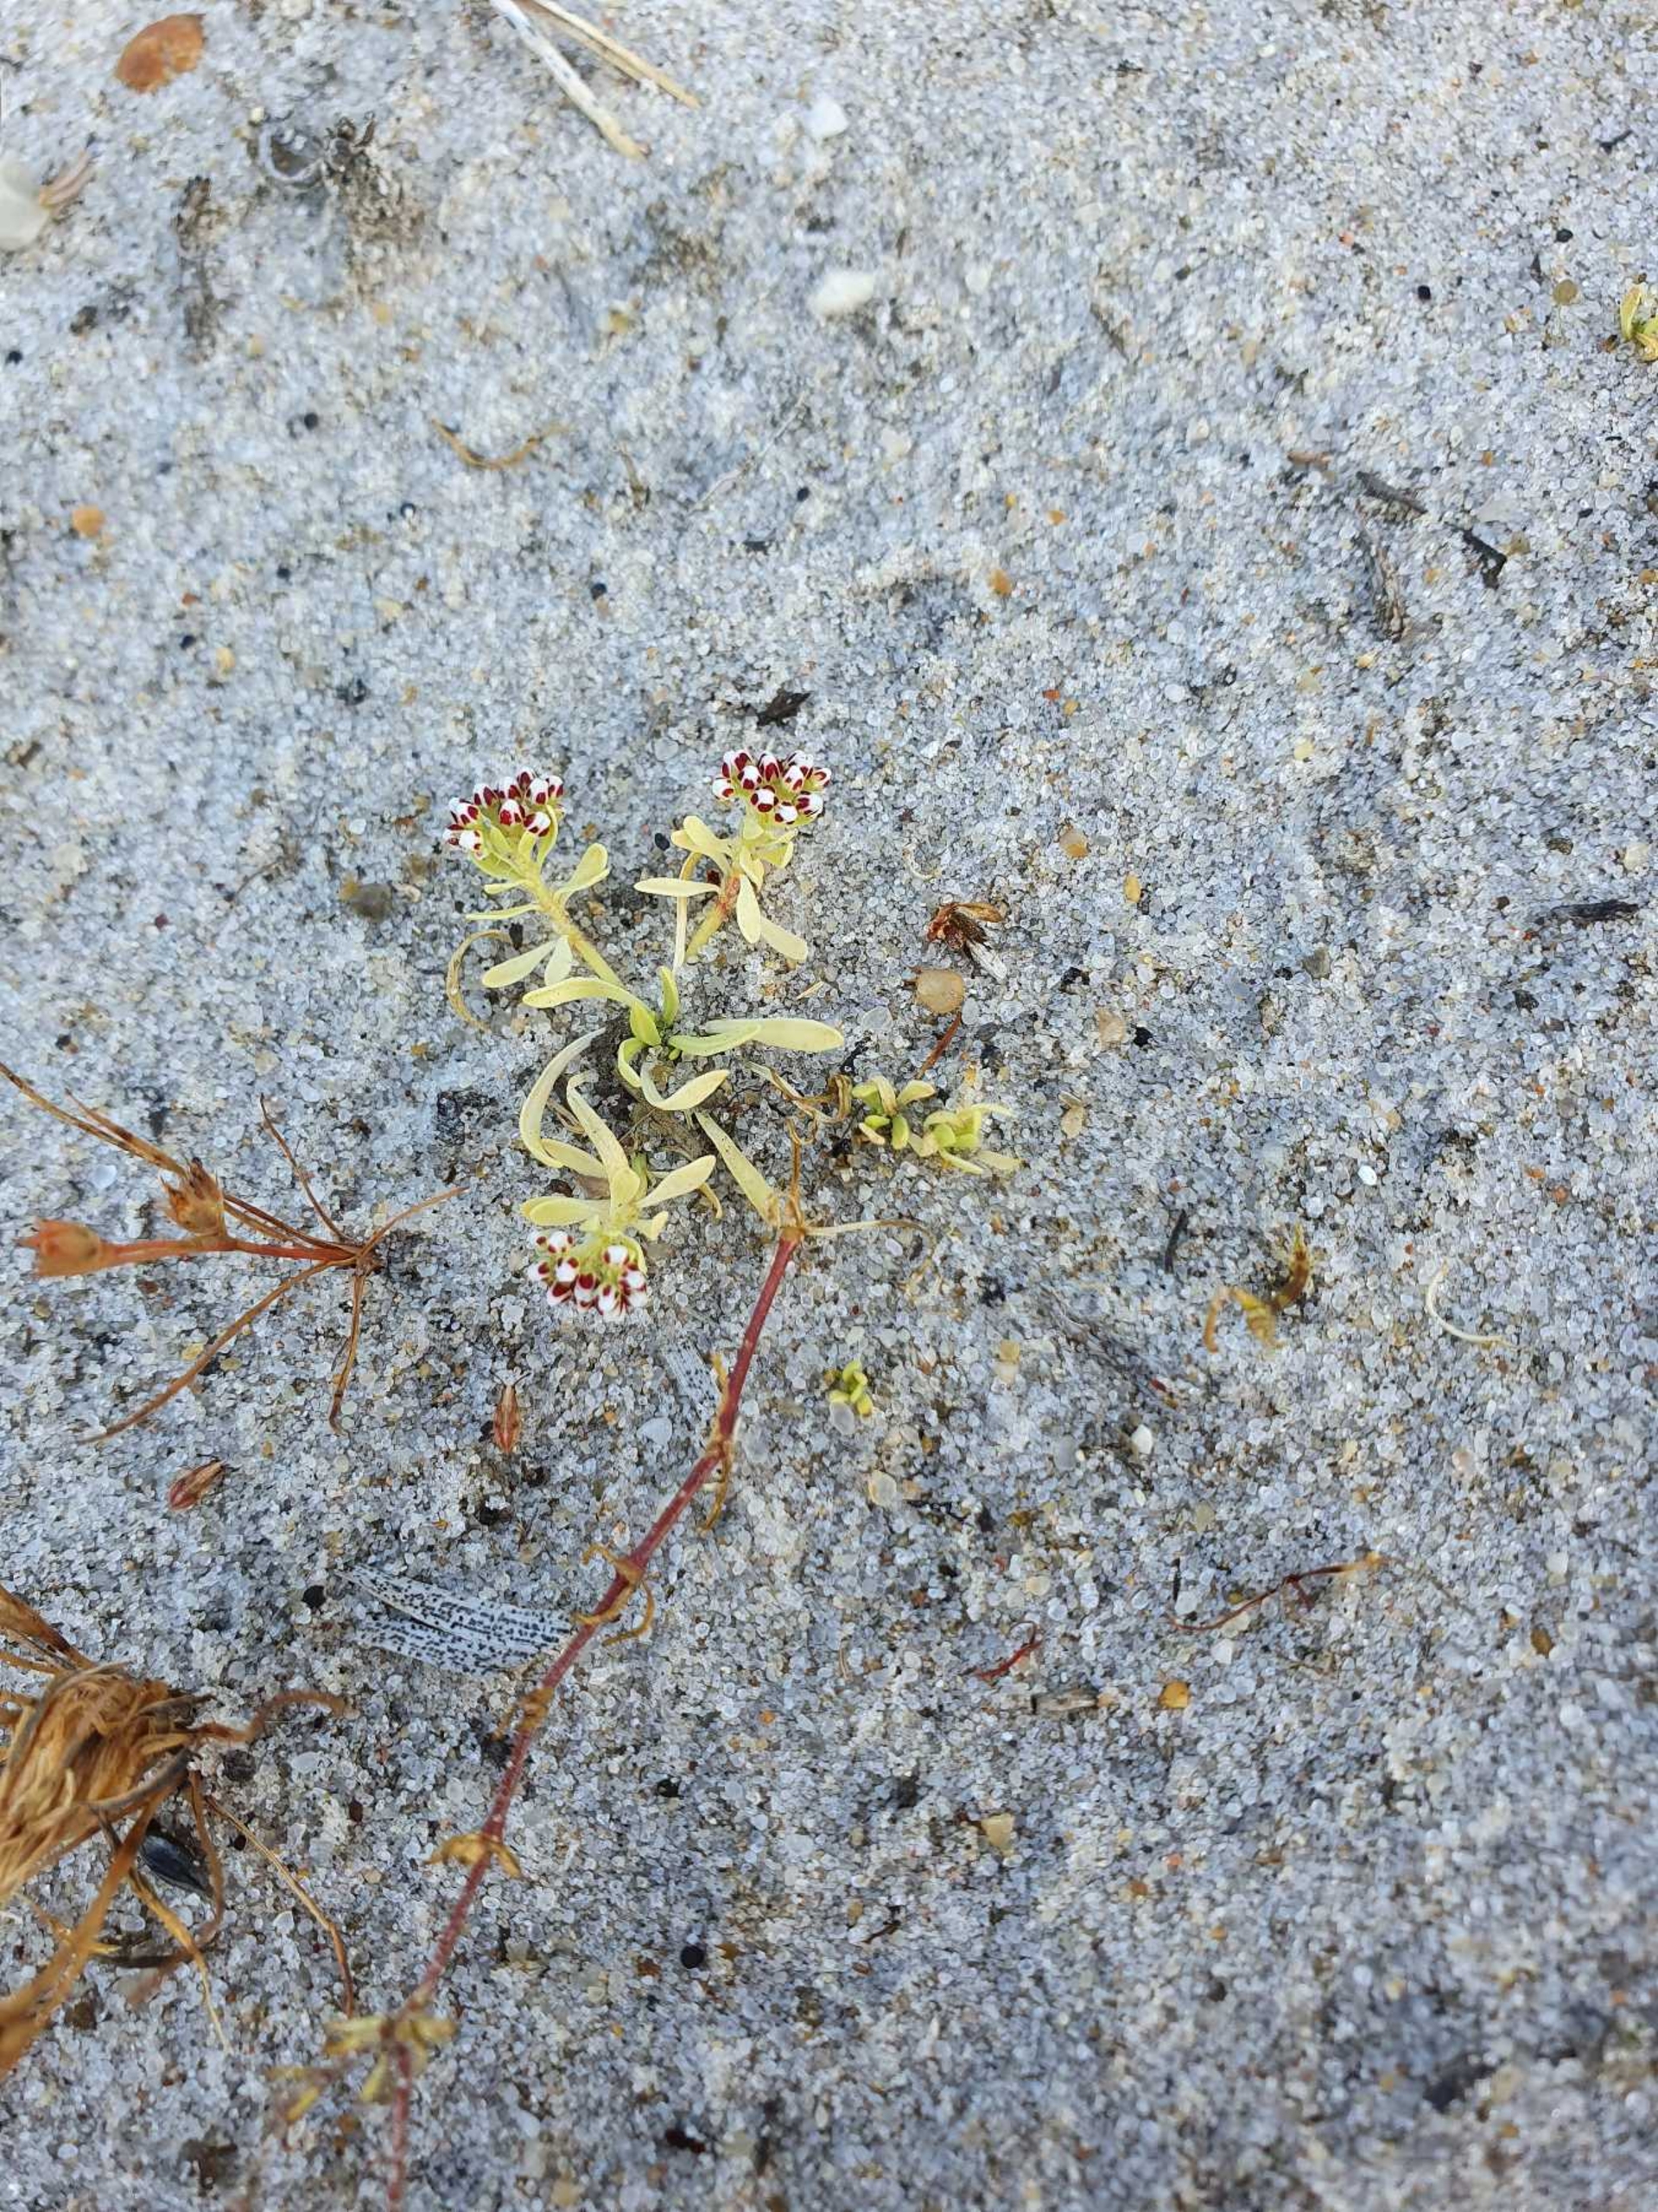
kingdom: Plantae
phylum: Tracheophyta
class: Magnoliopsida
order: Caryophyllales
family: Caryophyllaceae
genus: Corrigiola
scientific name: Corrigiola litoralis
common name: Skorem
